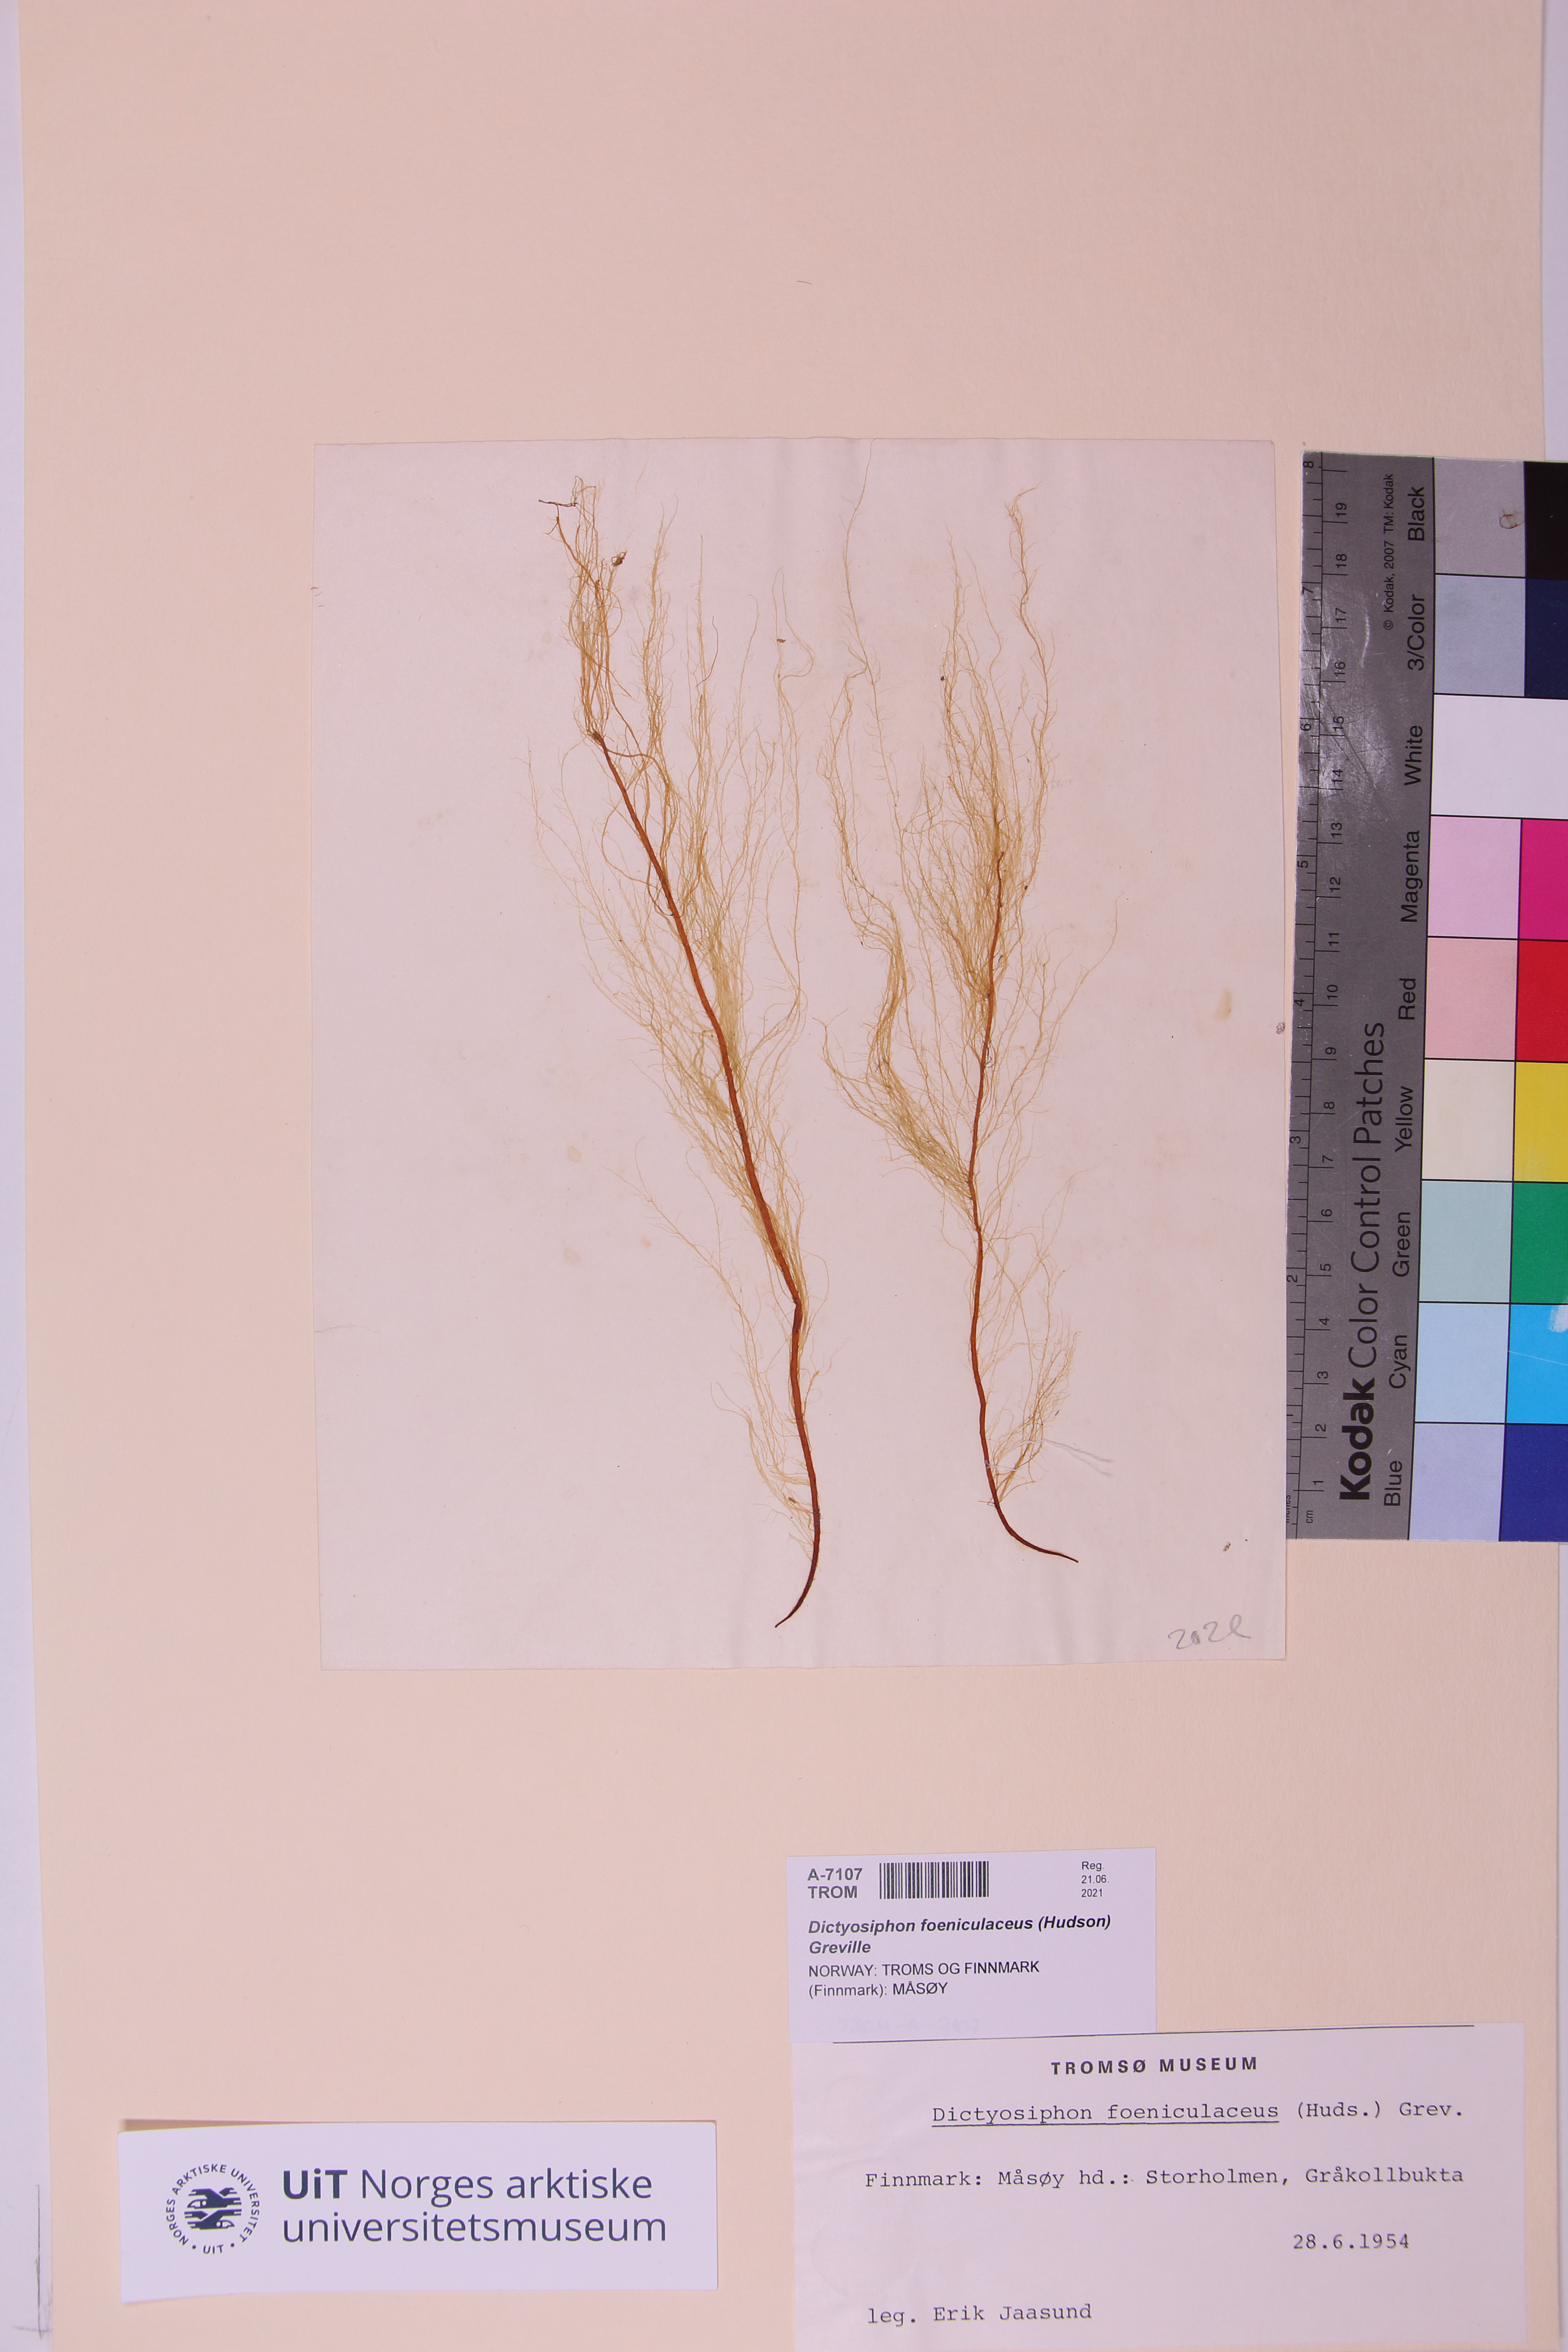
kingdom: Chromista
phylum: Ochrophyta
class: Phaeophyceae
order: Ectocarpales
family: Chordariaceae
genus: Dictyosiphon
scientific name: Dictyosiphon foeniculaceus
